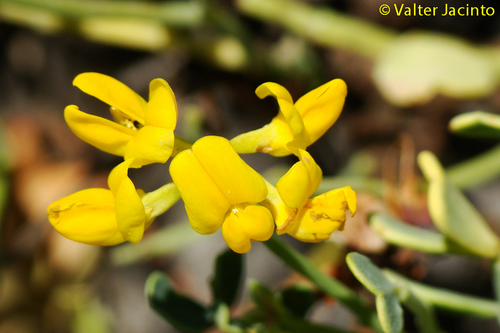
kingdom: Plantae
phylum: Tracheophyta
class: Magnoliopsida
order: Fabales
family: Fabaceae
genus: Coronilla
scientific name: Coronilla minima
